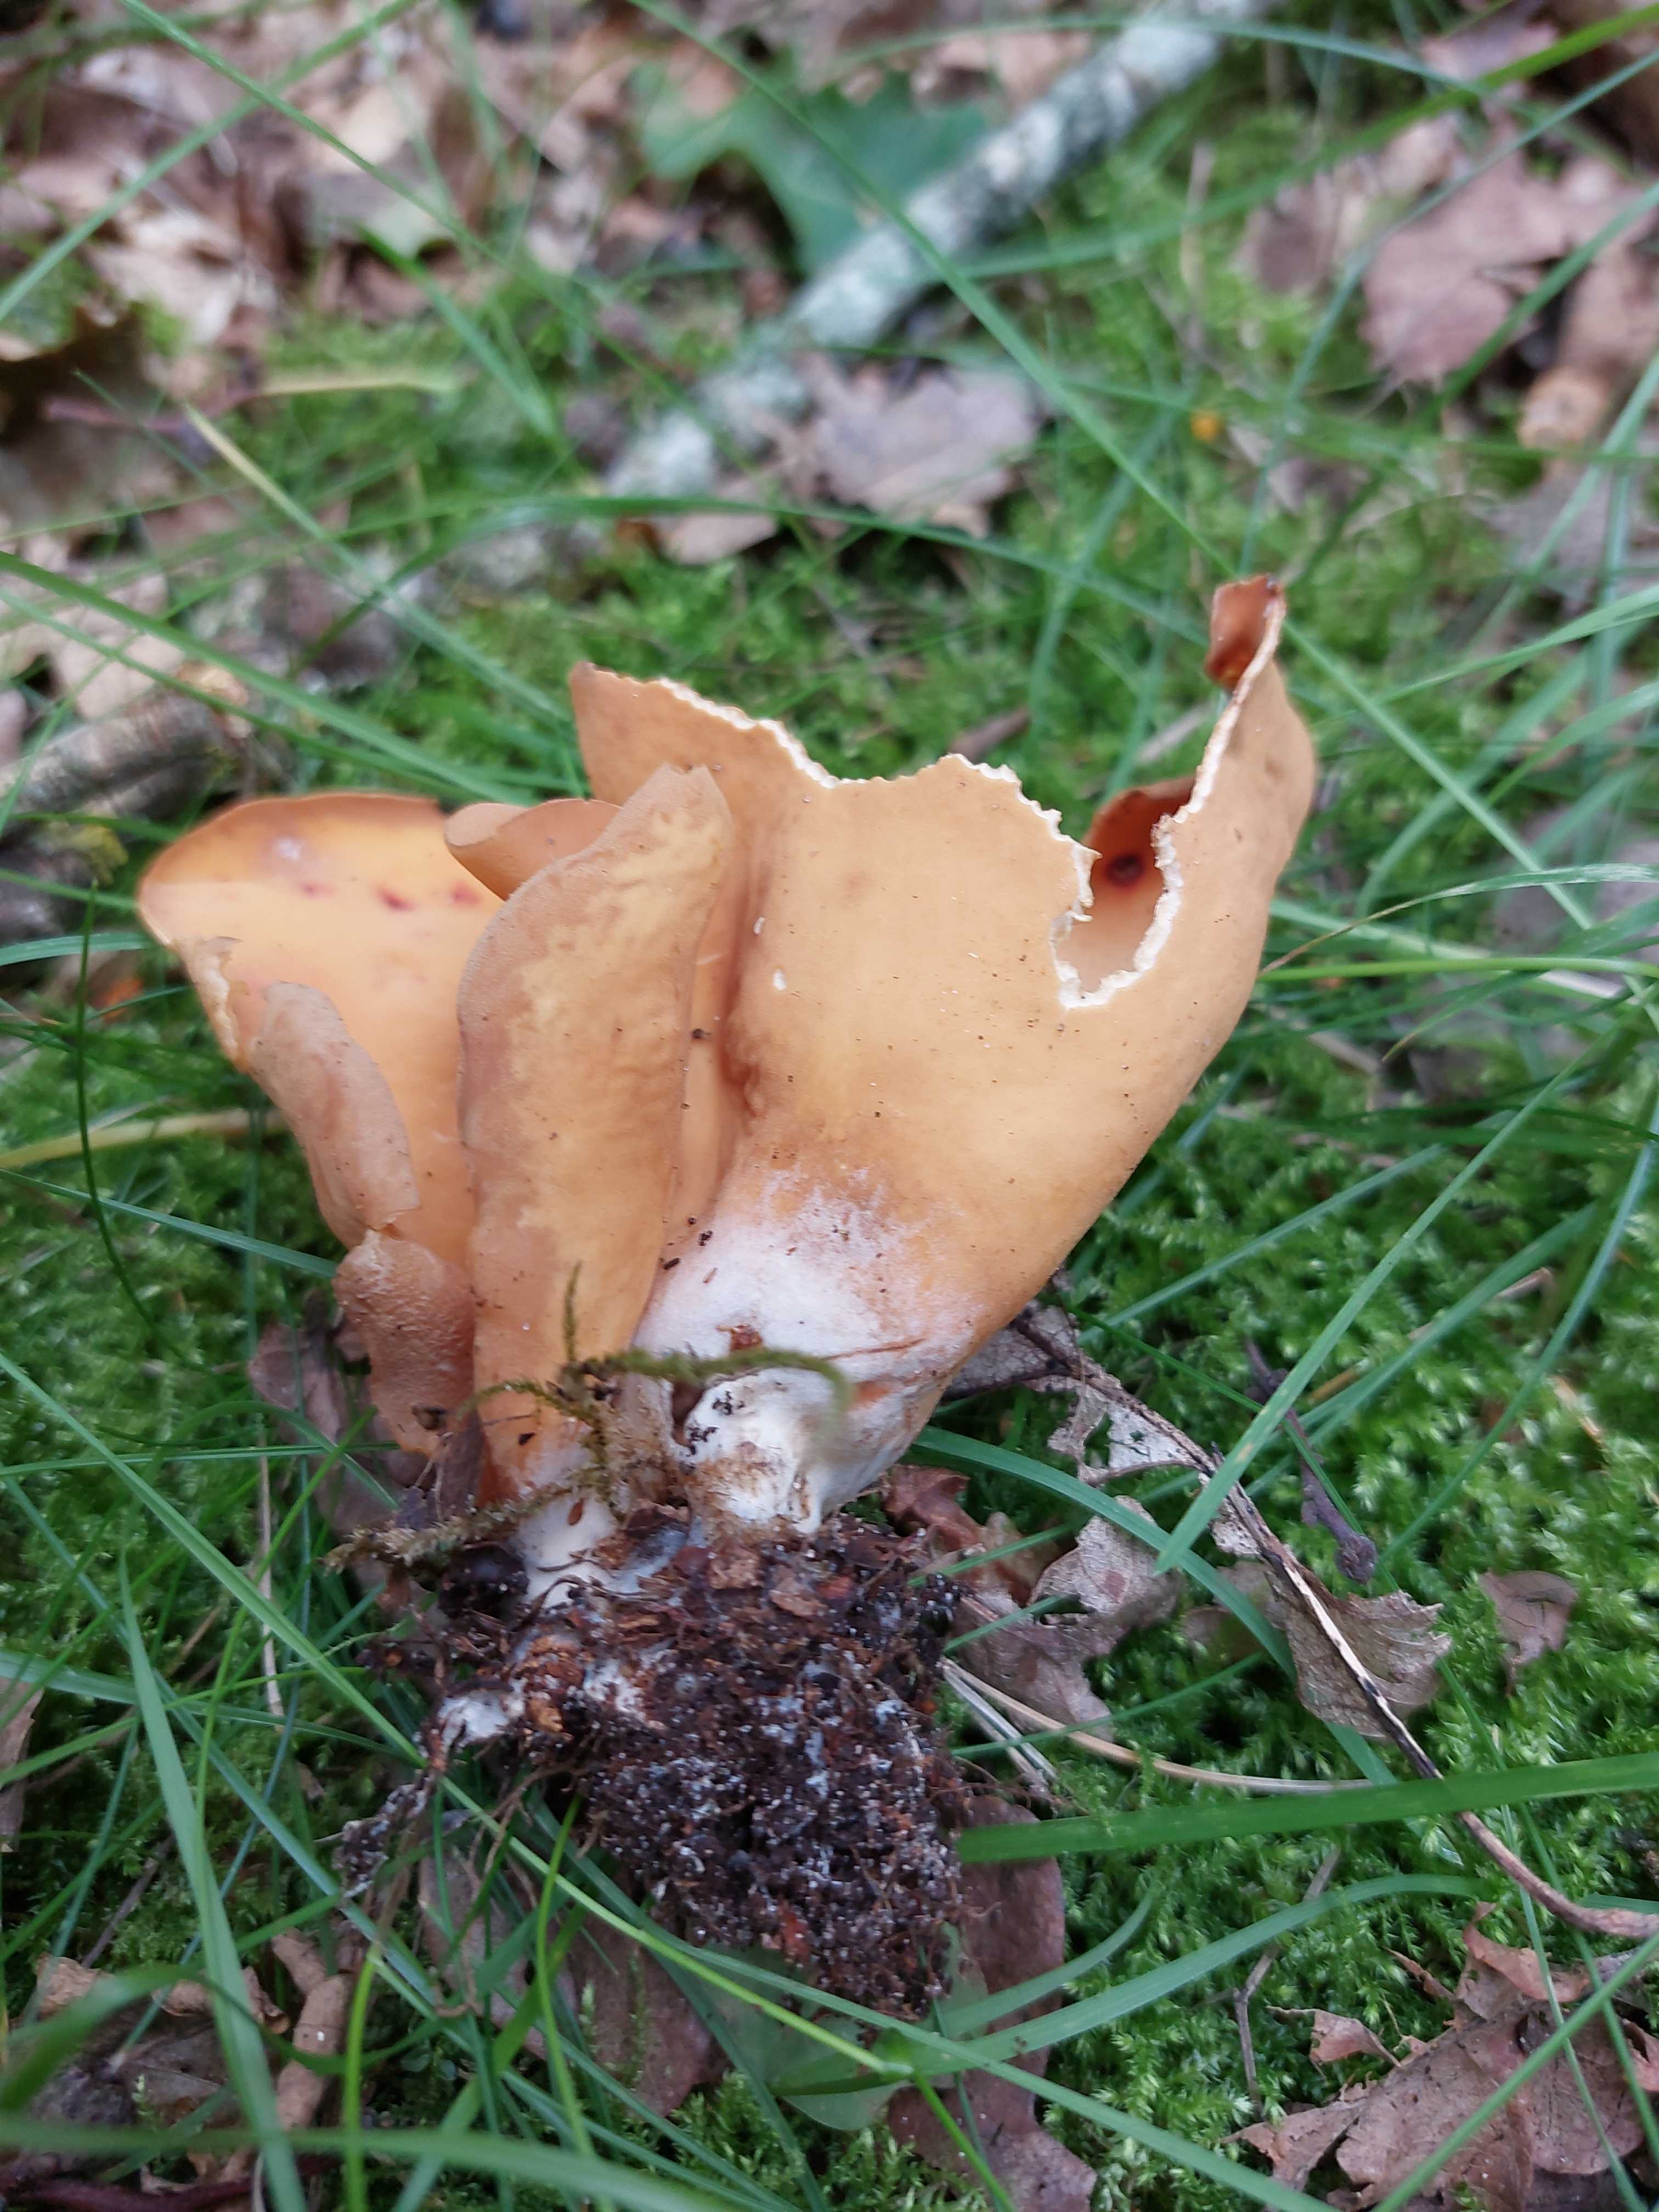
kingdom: Fungi
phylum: Ascomycota
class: Pezizomycetes
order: Pezizales
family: Otideaceae
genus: Otidea
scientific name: Otidea onotica
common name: æsel-ørebæger
